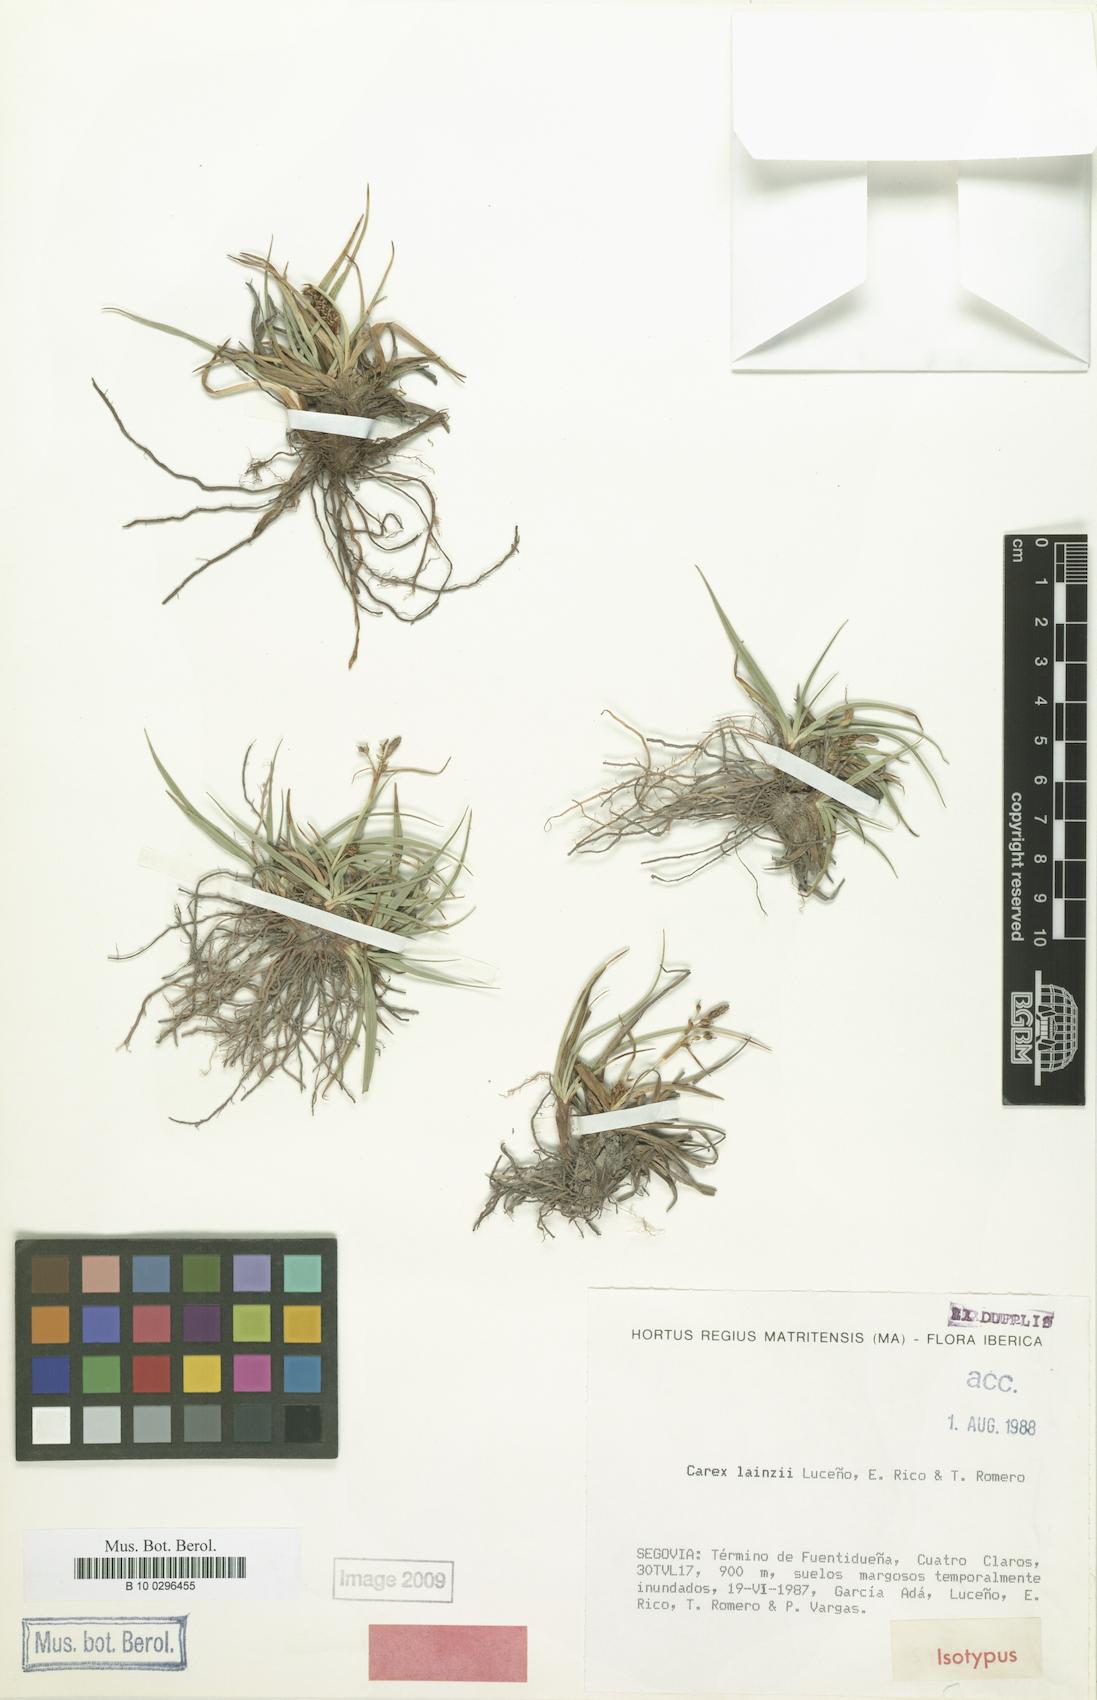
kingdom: Plantae
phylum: Tracheophyta
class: Liliopsida
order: Poales
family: Cyperaceae
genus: Carex
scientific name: Carex lainzii
